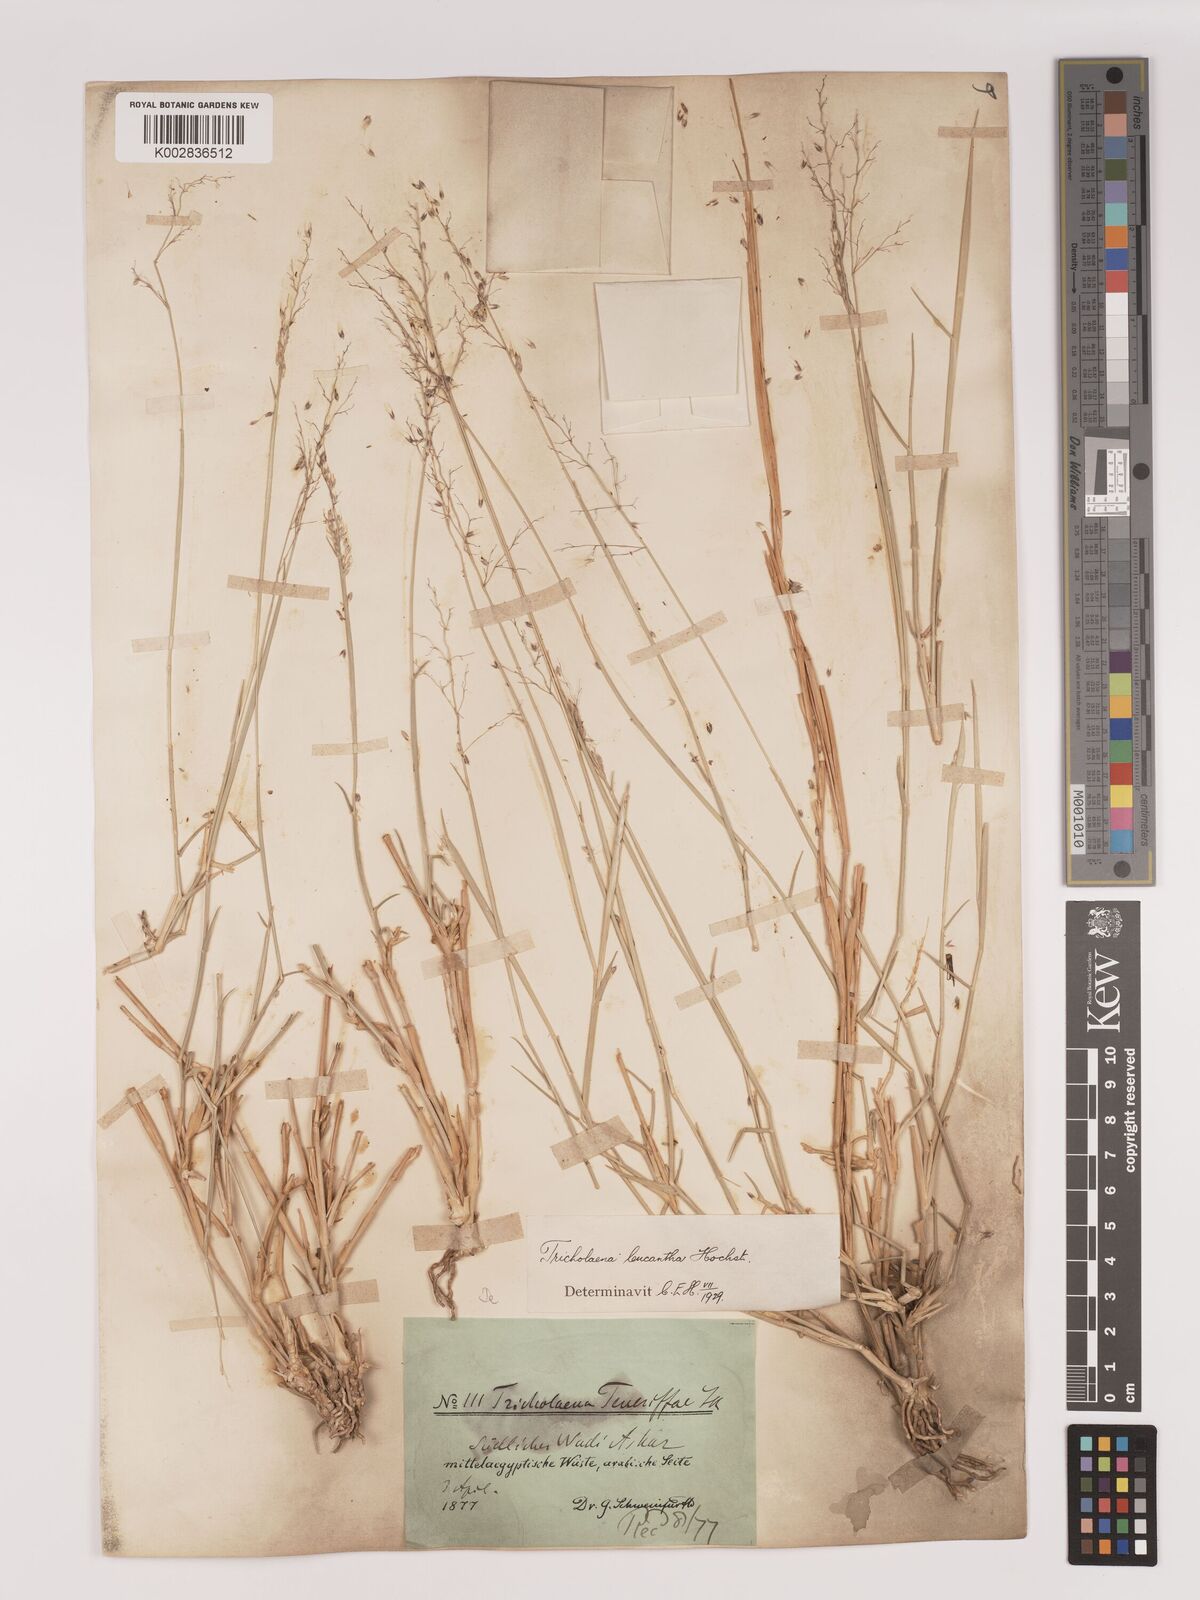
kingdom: Plantae
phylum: Tracheophyta
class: Liliopsida
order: Poales
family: Poaceae
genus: Tricholaena
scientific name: Tricholaena teneriffae
